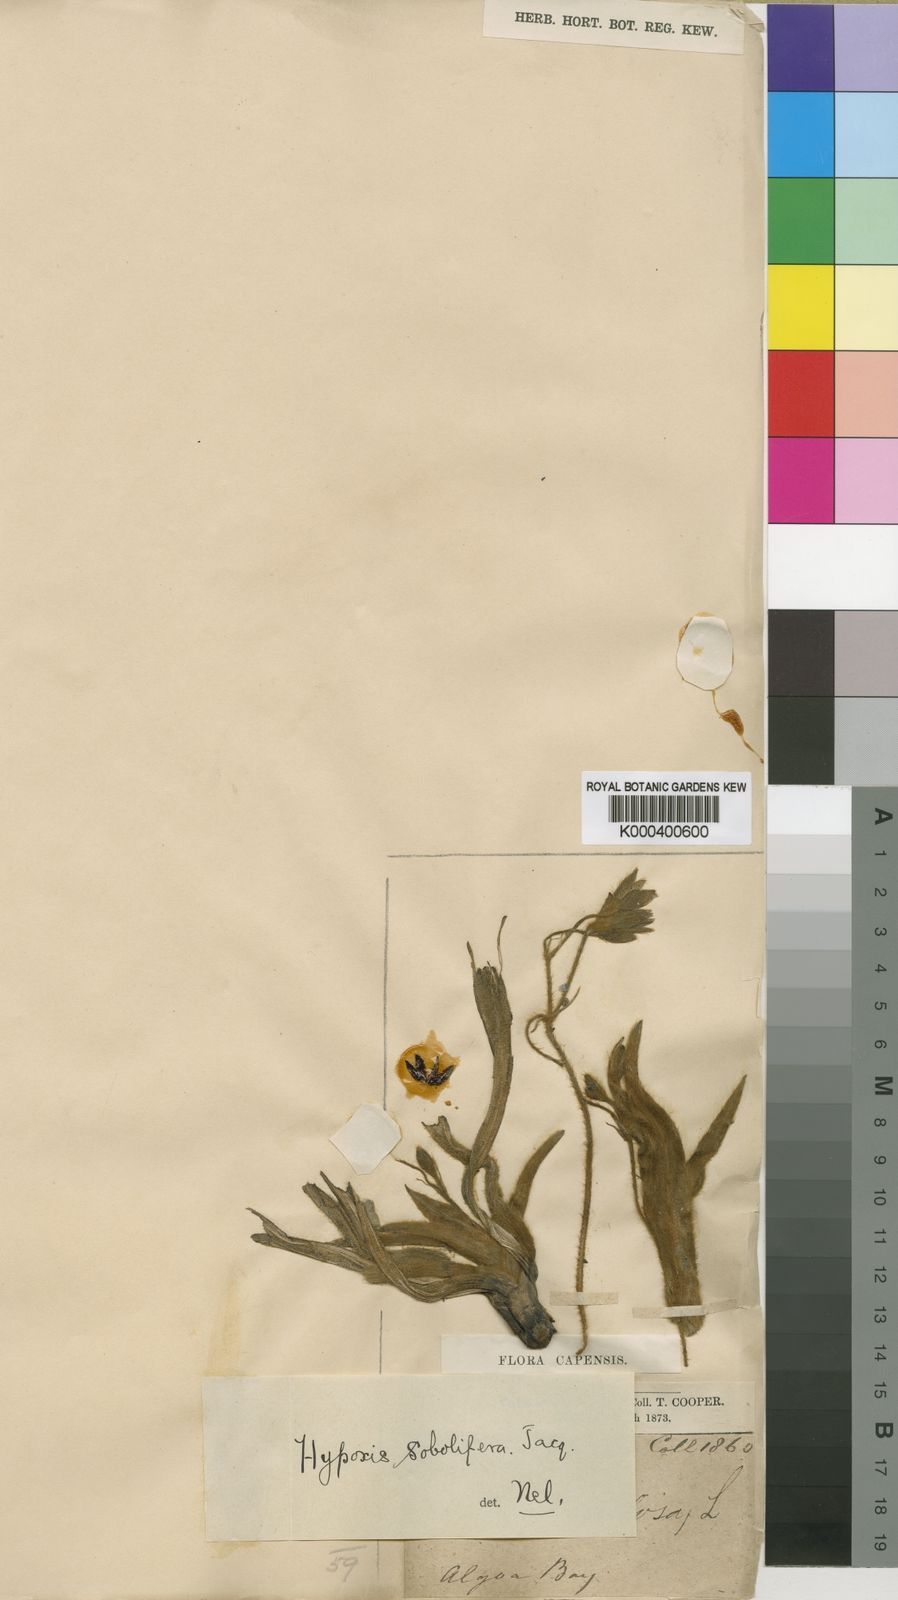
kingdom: Plantae
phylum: Tracheophyta
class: Liliopsida
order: Asparagales
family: Hypoxidaceae
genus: Hypoxis
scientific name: Hypoxis sobolifera
